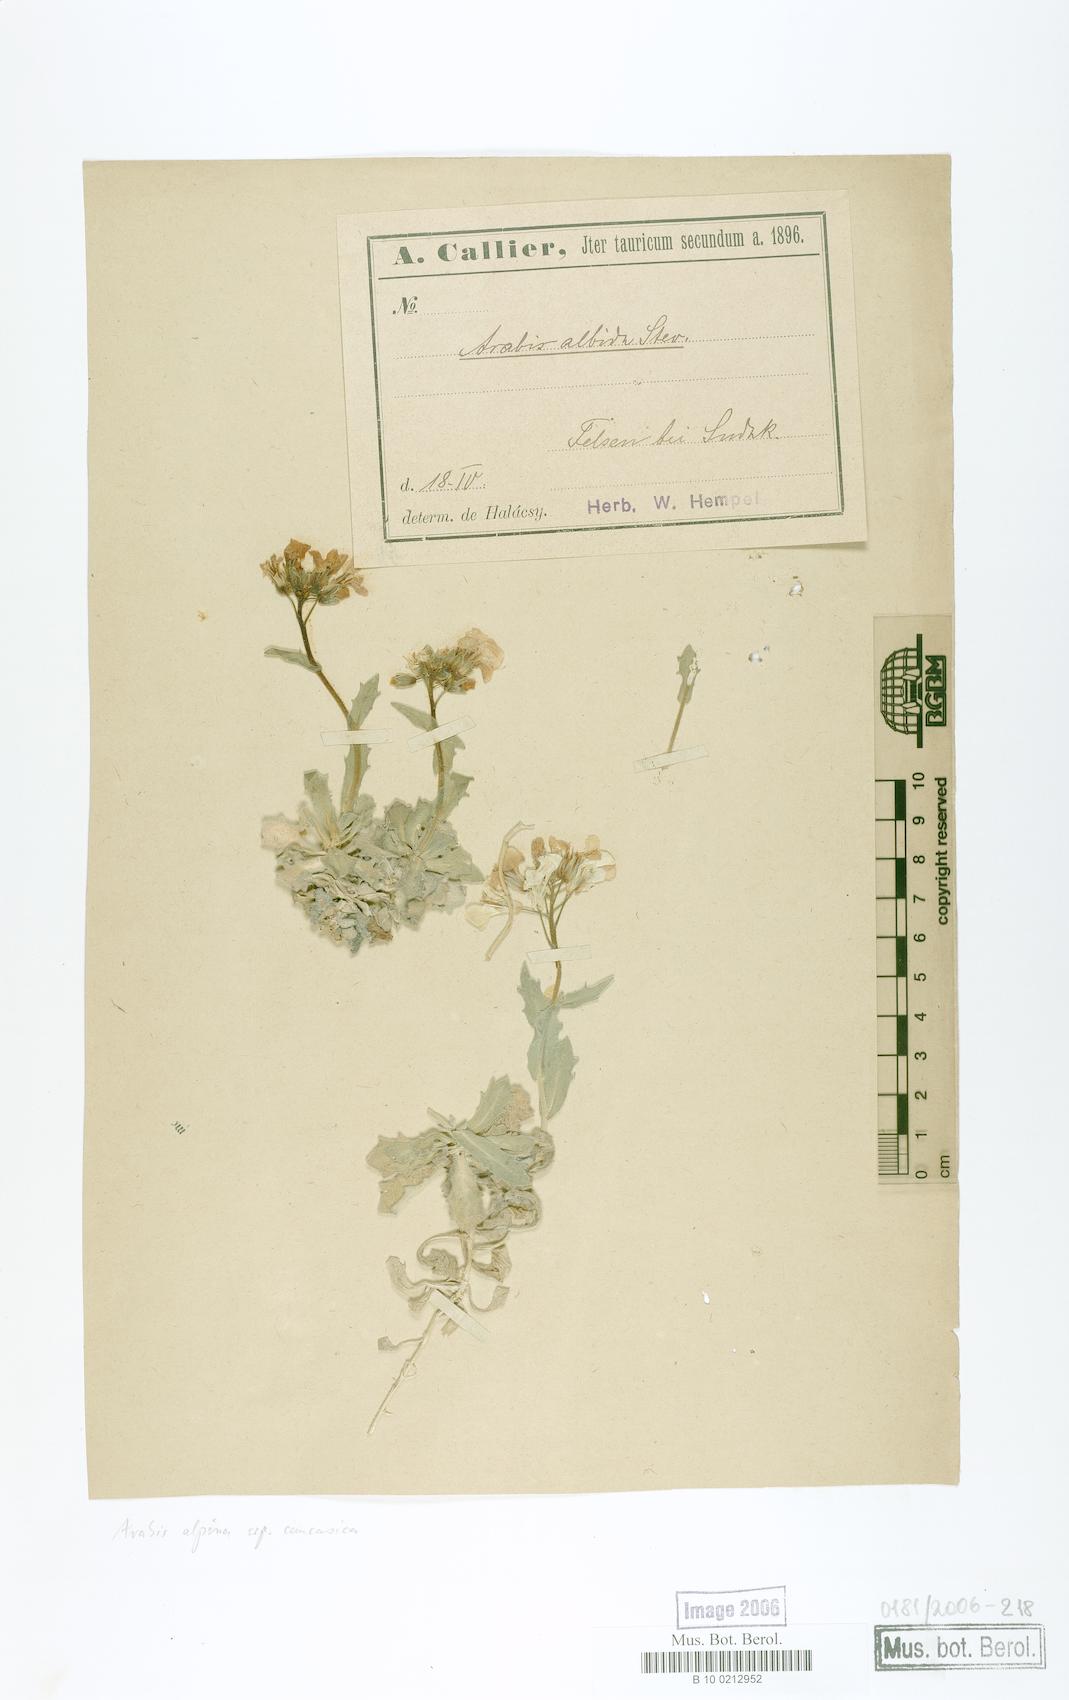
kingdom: Plantae
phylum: Tracheophyta
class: Magnoliopsida
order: Brassicales
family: Brassicaceae
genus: Arabis
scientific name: Arabis caucasica
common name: Gray rockcress
